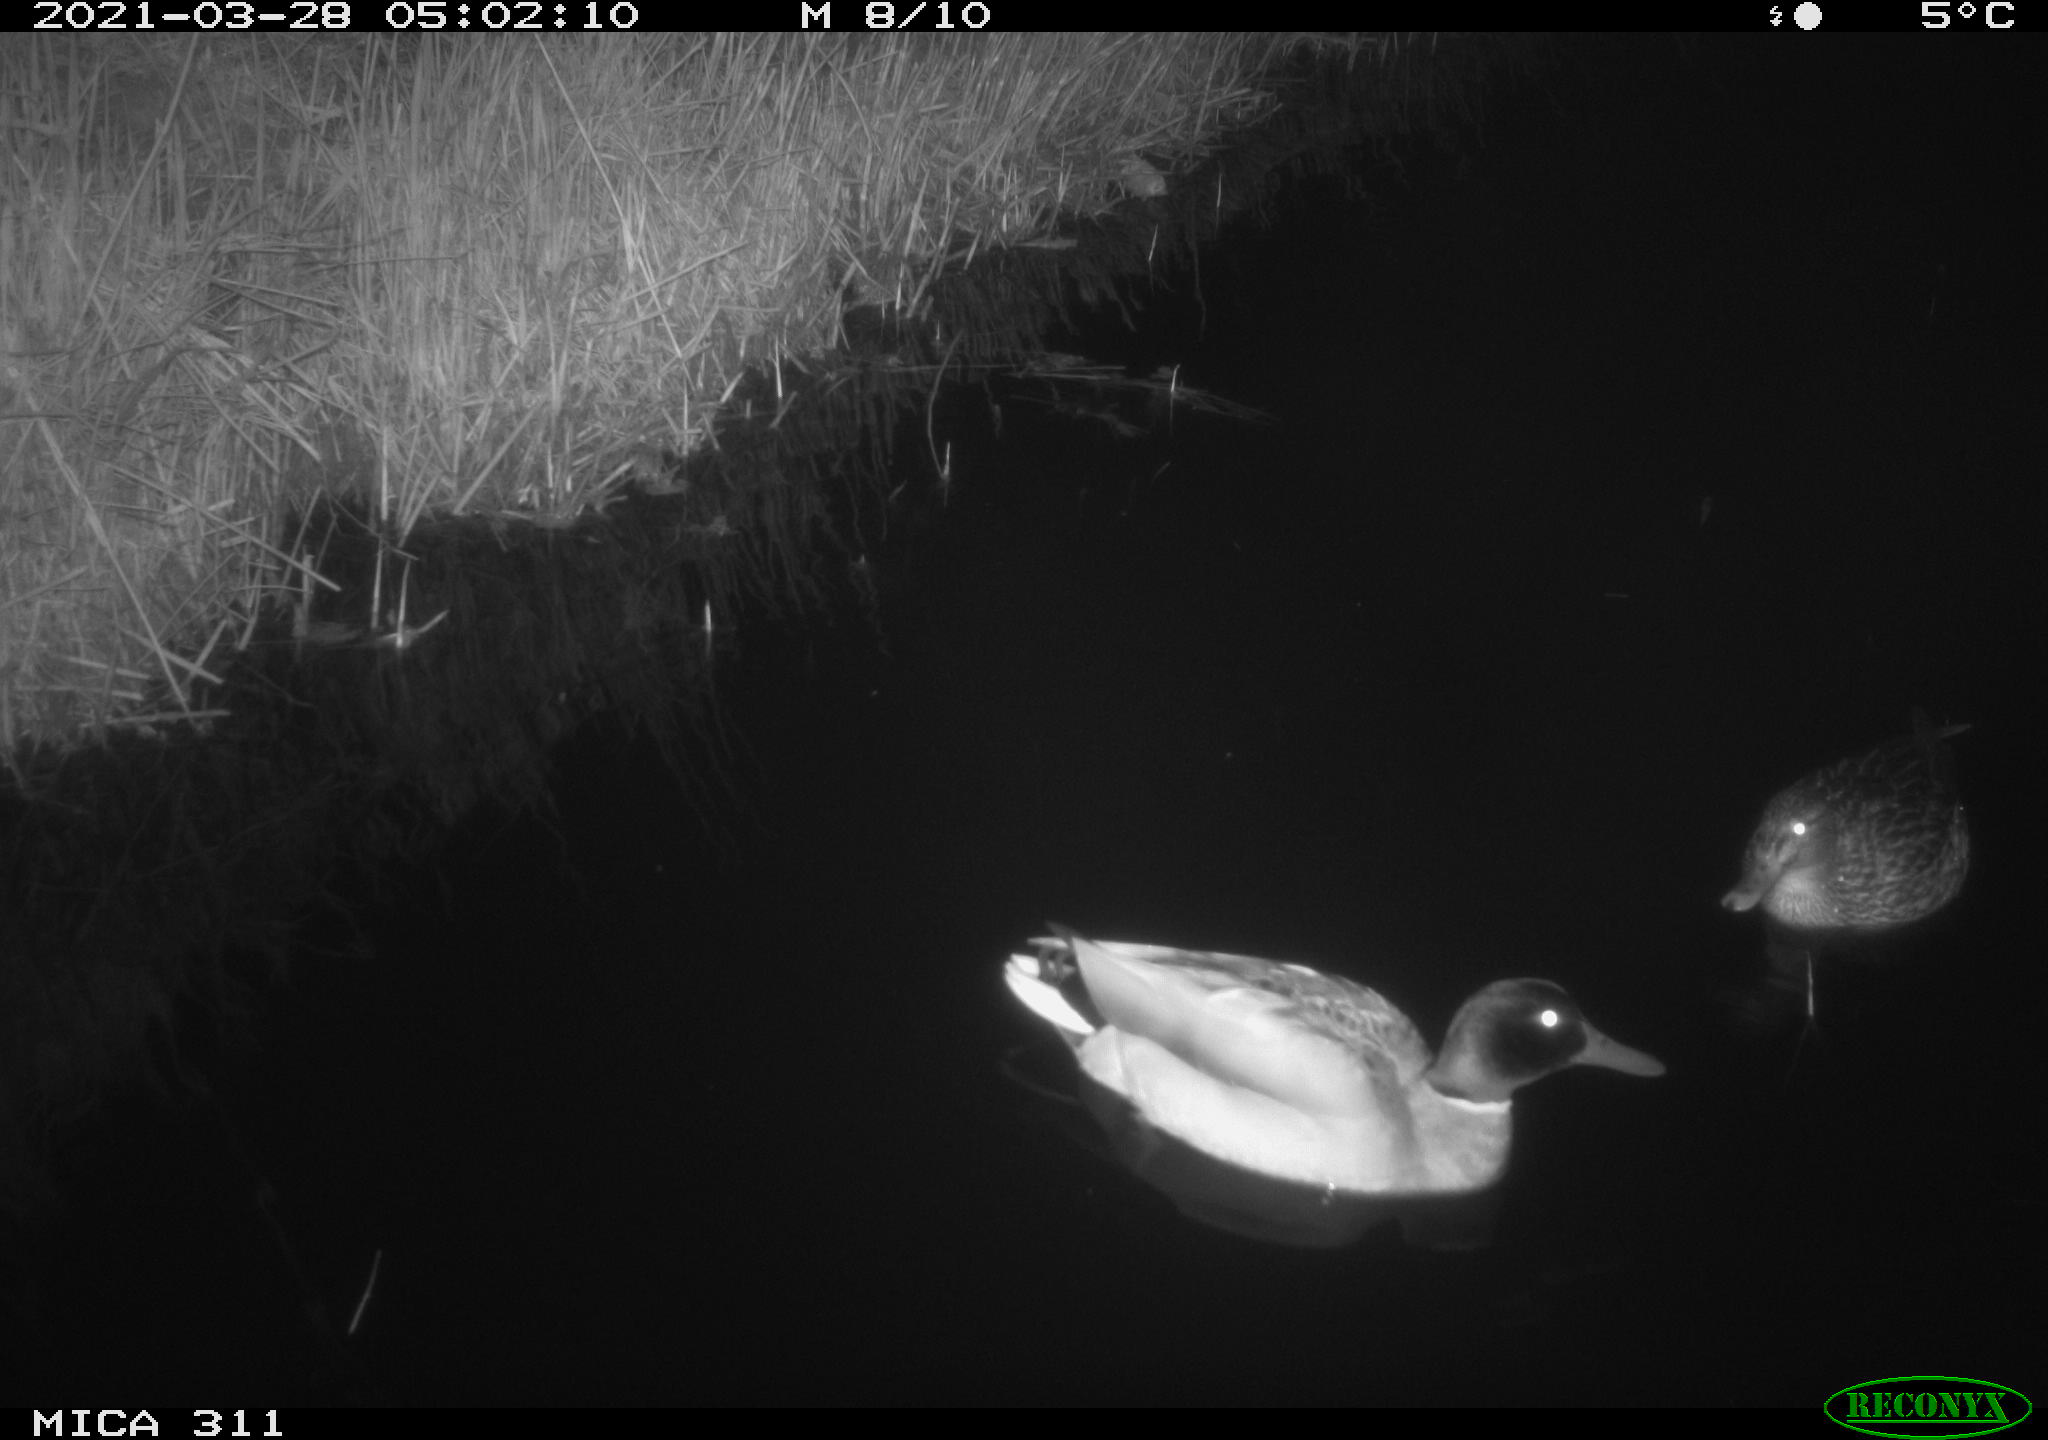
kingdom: Animalia
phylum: Chordata
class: Aves
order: Anseriformes
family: Anatidae
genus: Anas
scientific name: Anas
